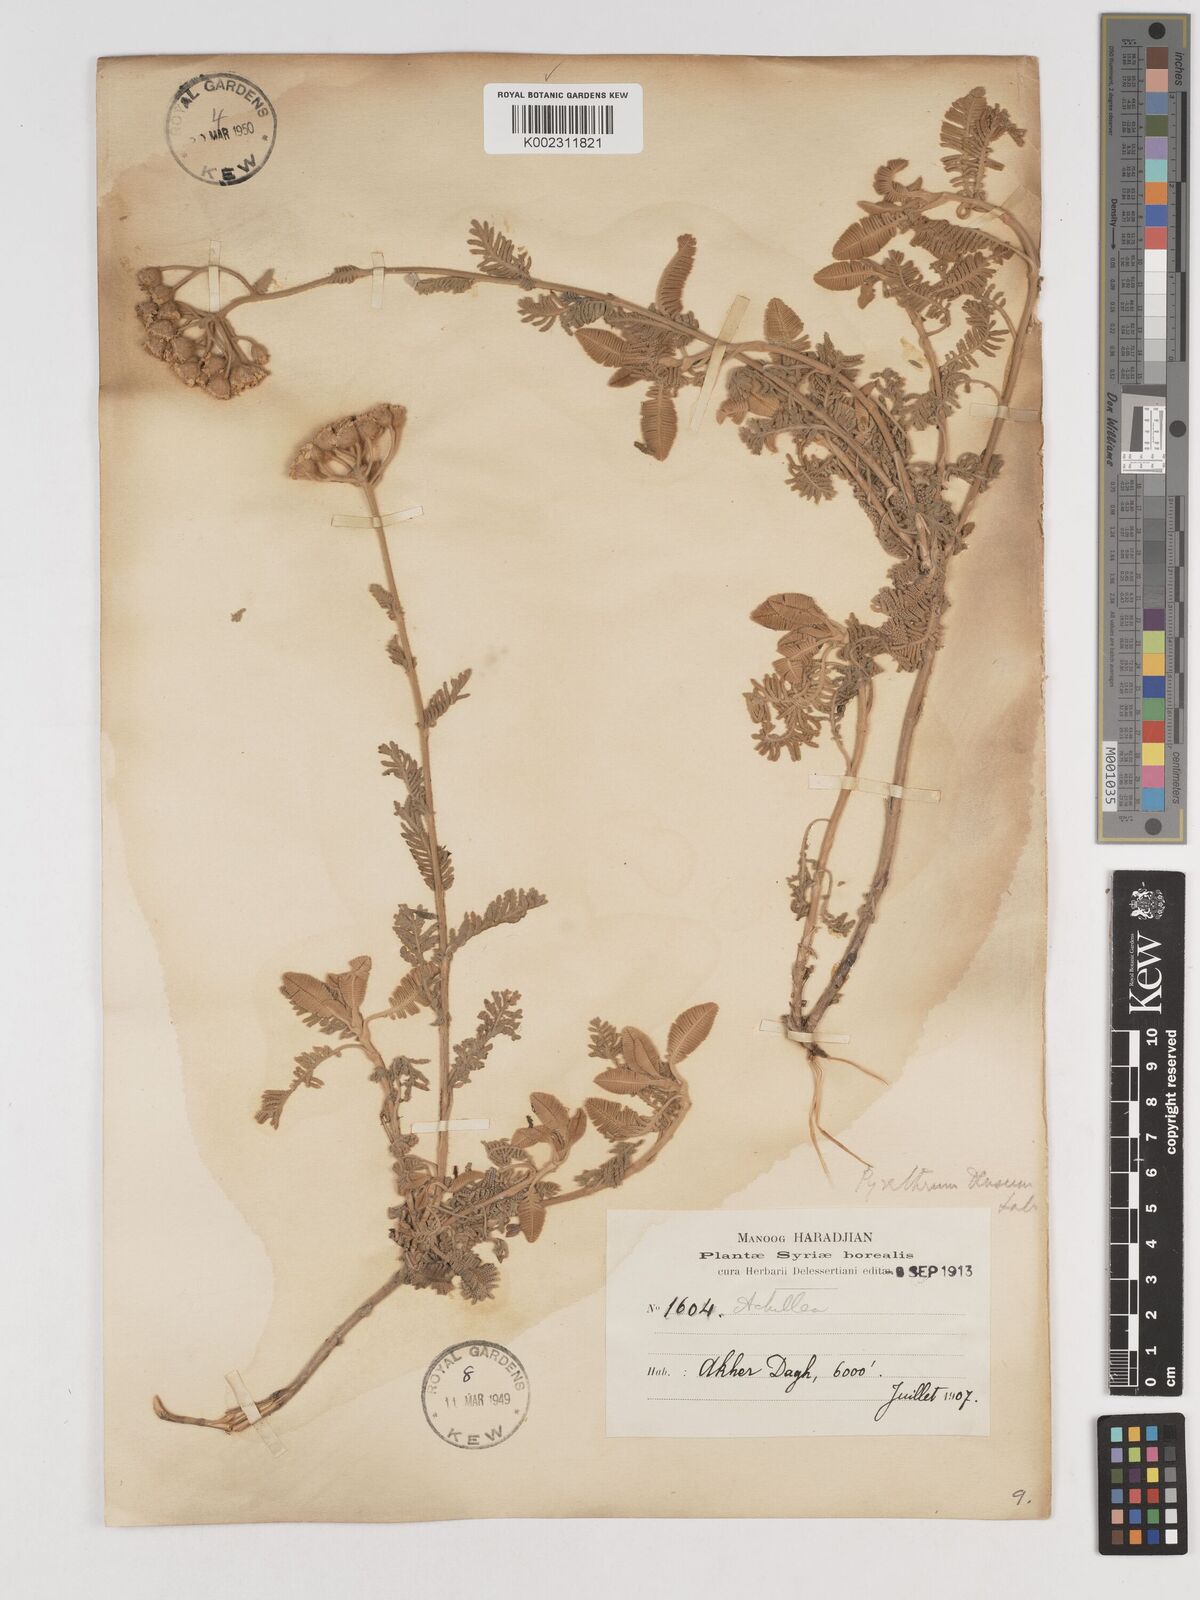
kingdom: Plantae
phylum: Tracheophyta
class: Magnoliopsida
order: Asterales
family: Asteraceae
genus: Tanacetum
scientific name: Tanacetum densum
